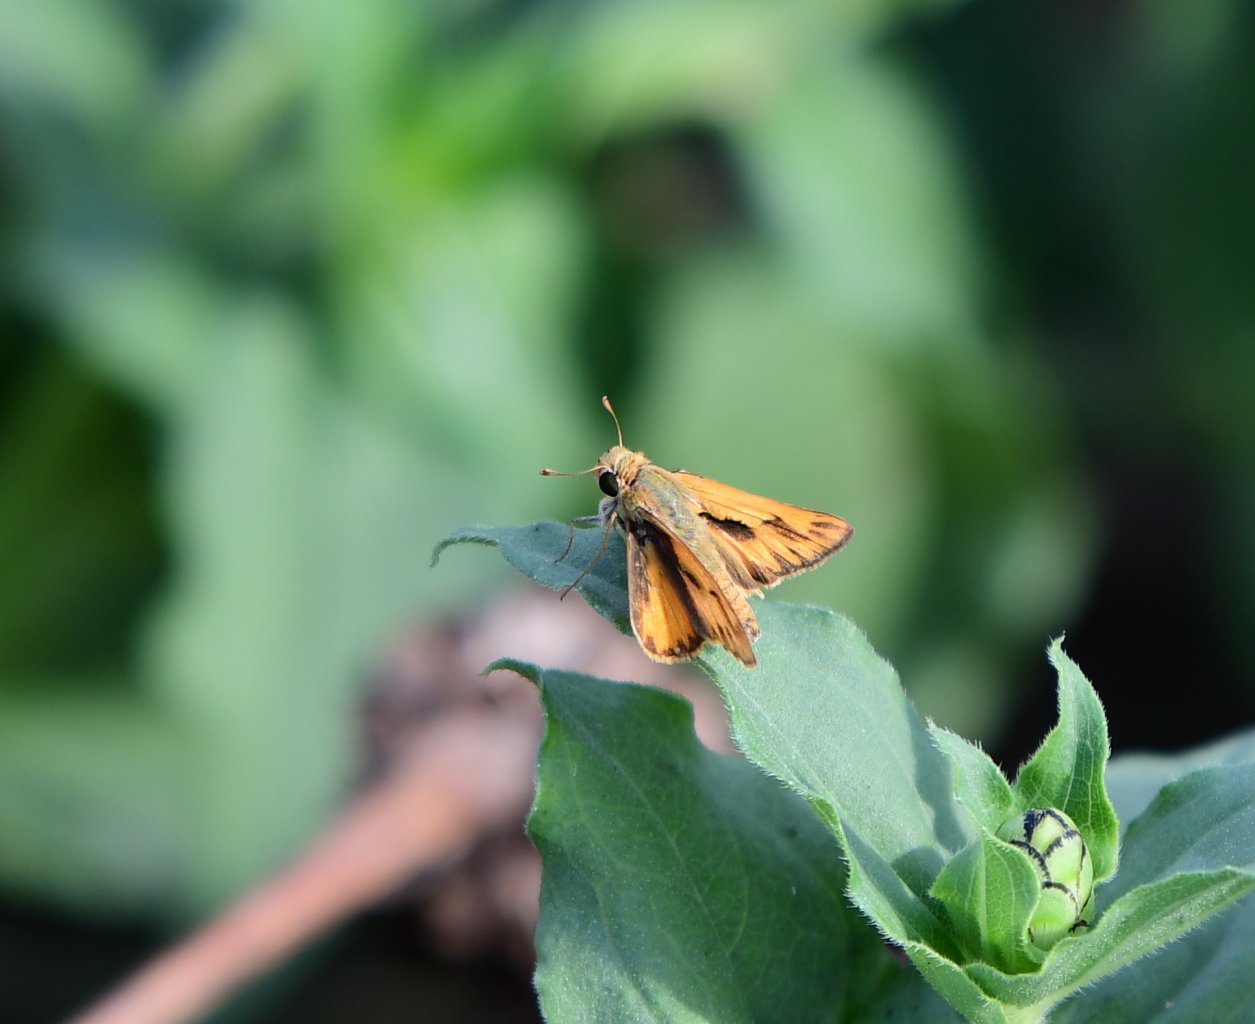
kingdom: Animalia
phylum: Arthropoda
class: Insecta
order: Lepidoptera
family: Hesperiidae
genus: Hylephila
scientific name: Hylephila phyleus
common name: Fiery Skipper
